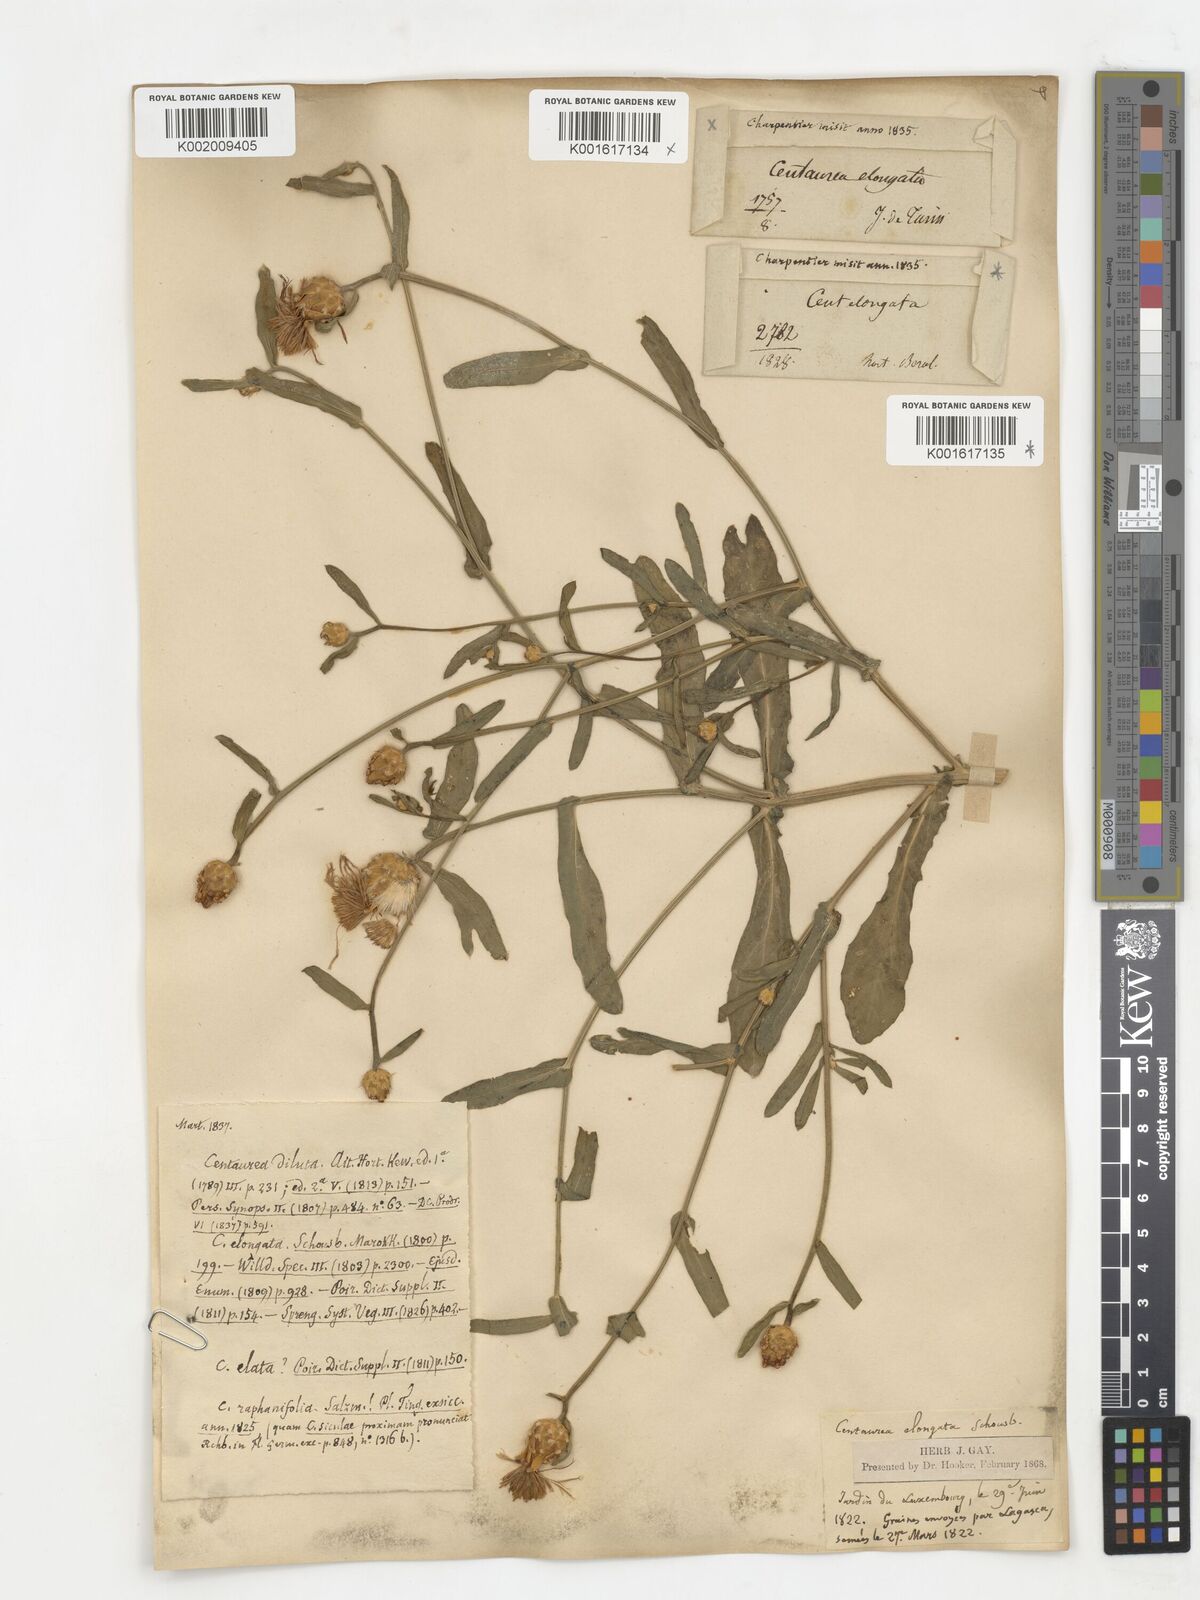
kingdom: Plantae
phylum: Tracheophyta
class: Magnoliopsida
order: Asterales
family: Asteraceae
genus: Centaurea
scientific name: Centaurea diluta
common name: Lesser star-thistle
